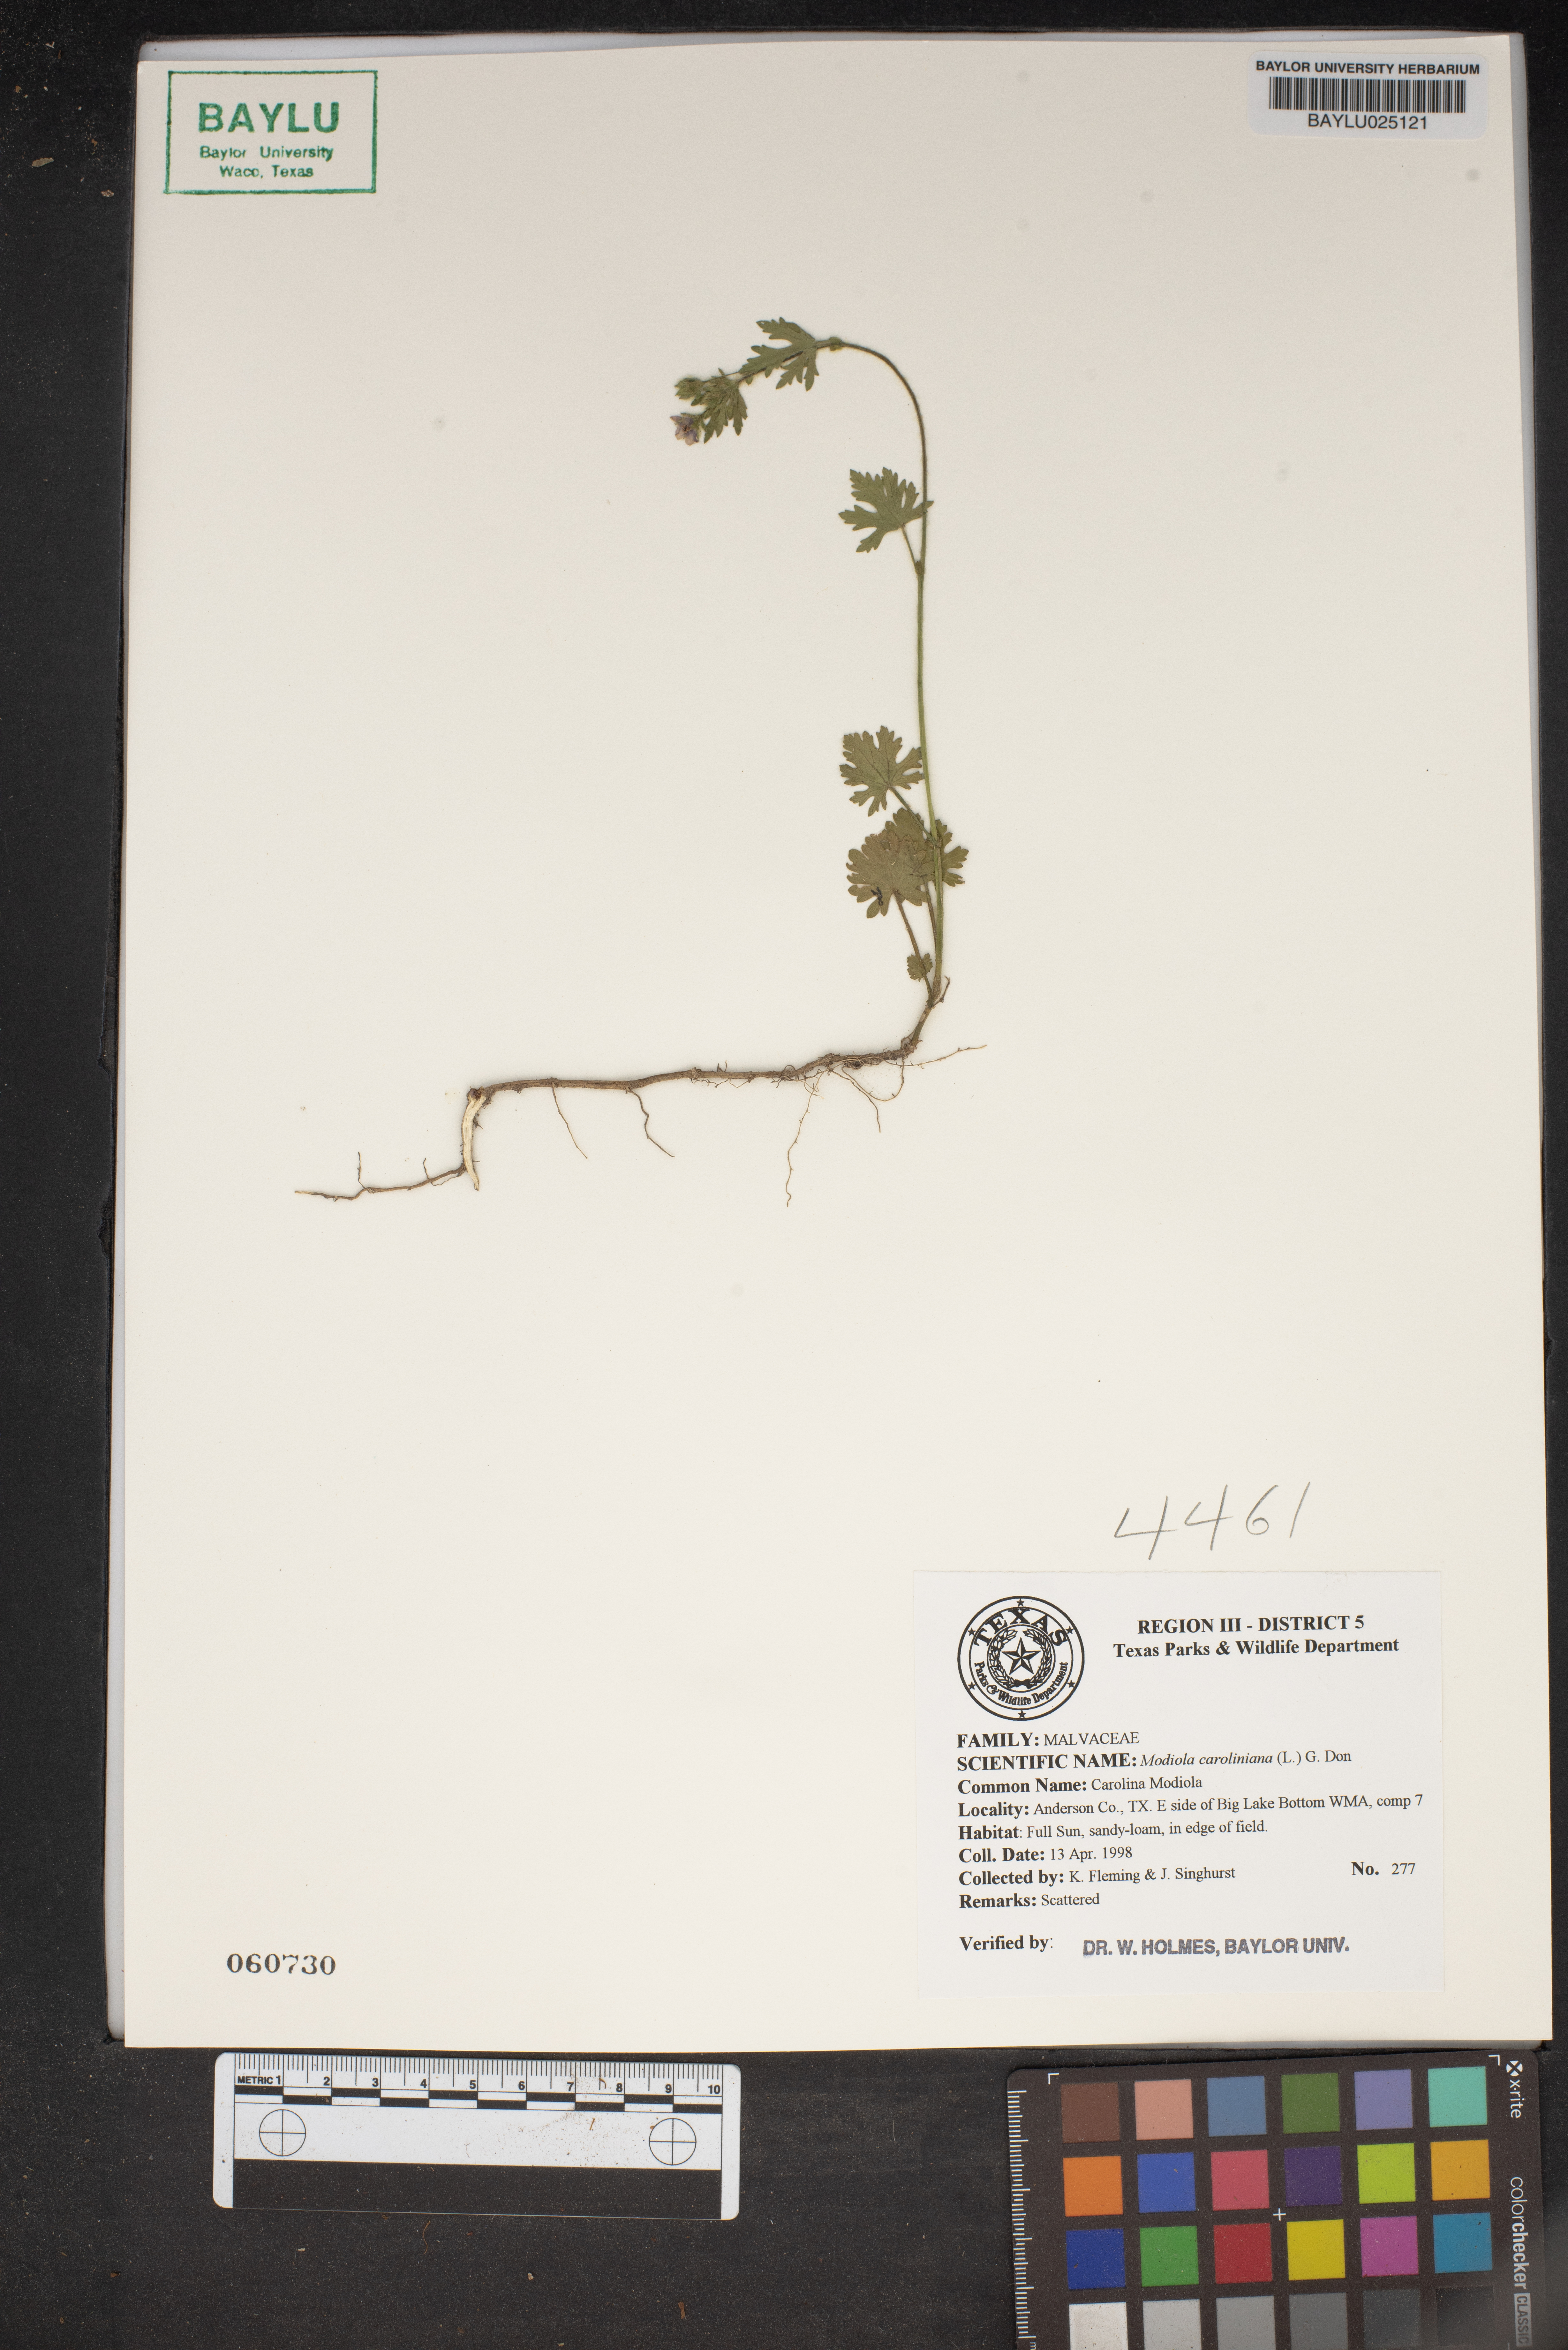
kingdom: Plantae
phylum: Tracheophyta
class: Magnoliopsida
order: Malvales
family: Malvaceae
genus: Modiola
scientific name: Modiola caroliniana
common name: Carolina bristlemallow
